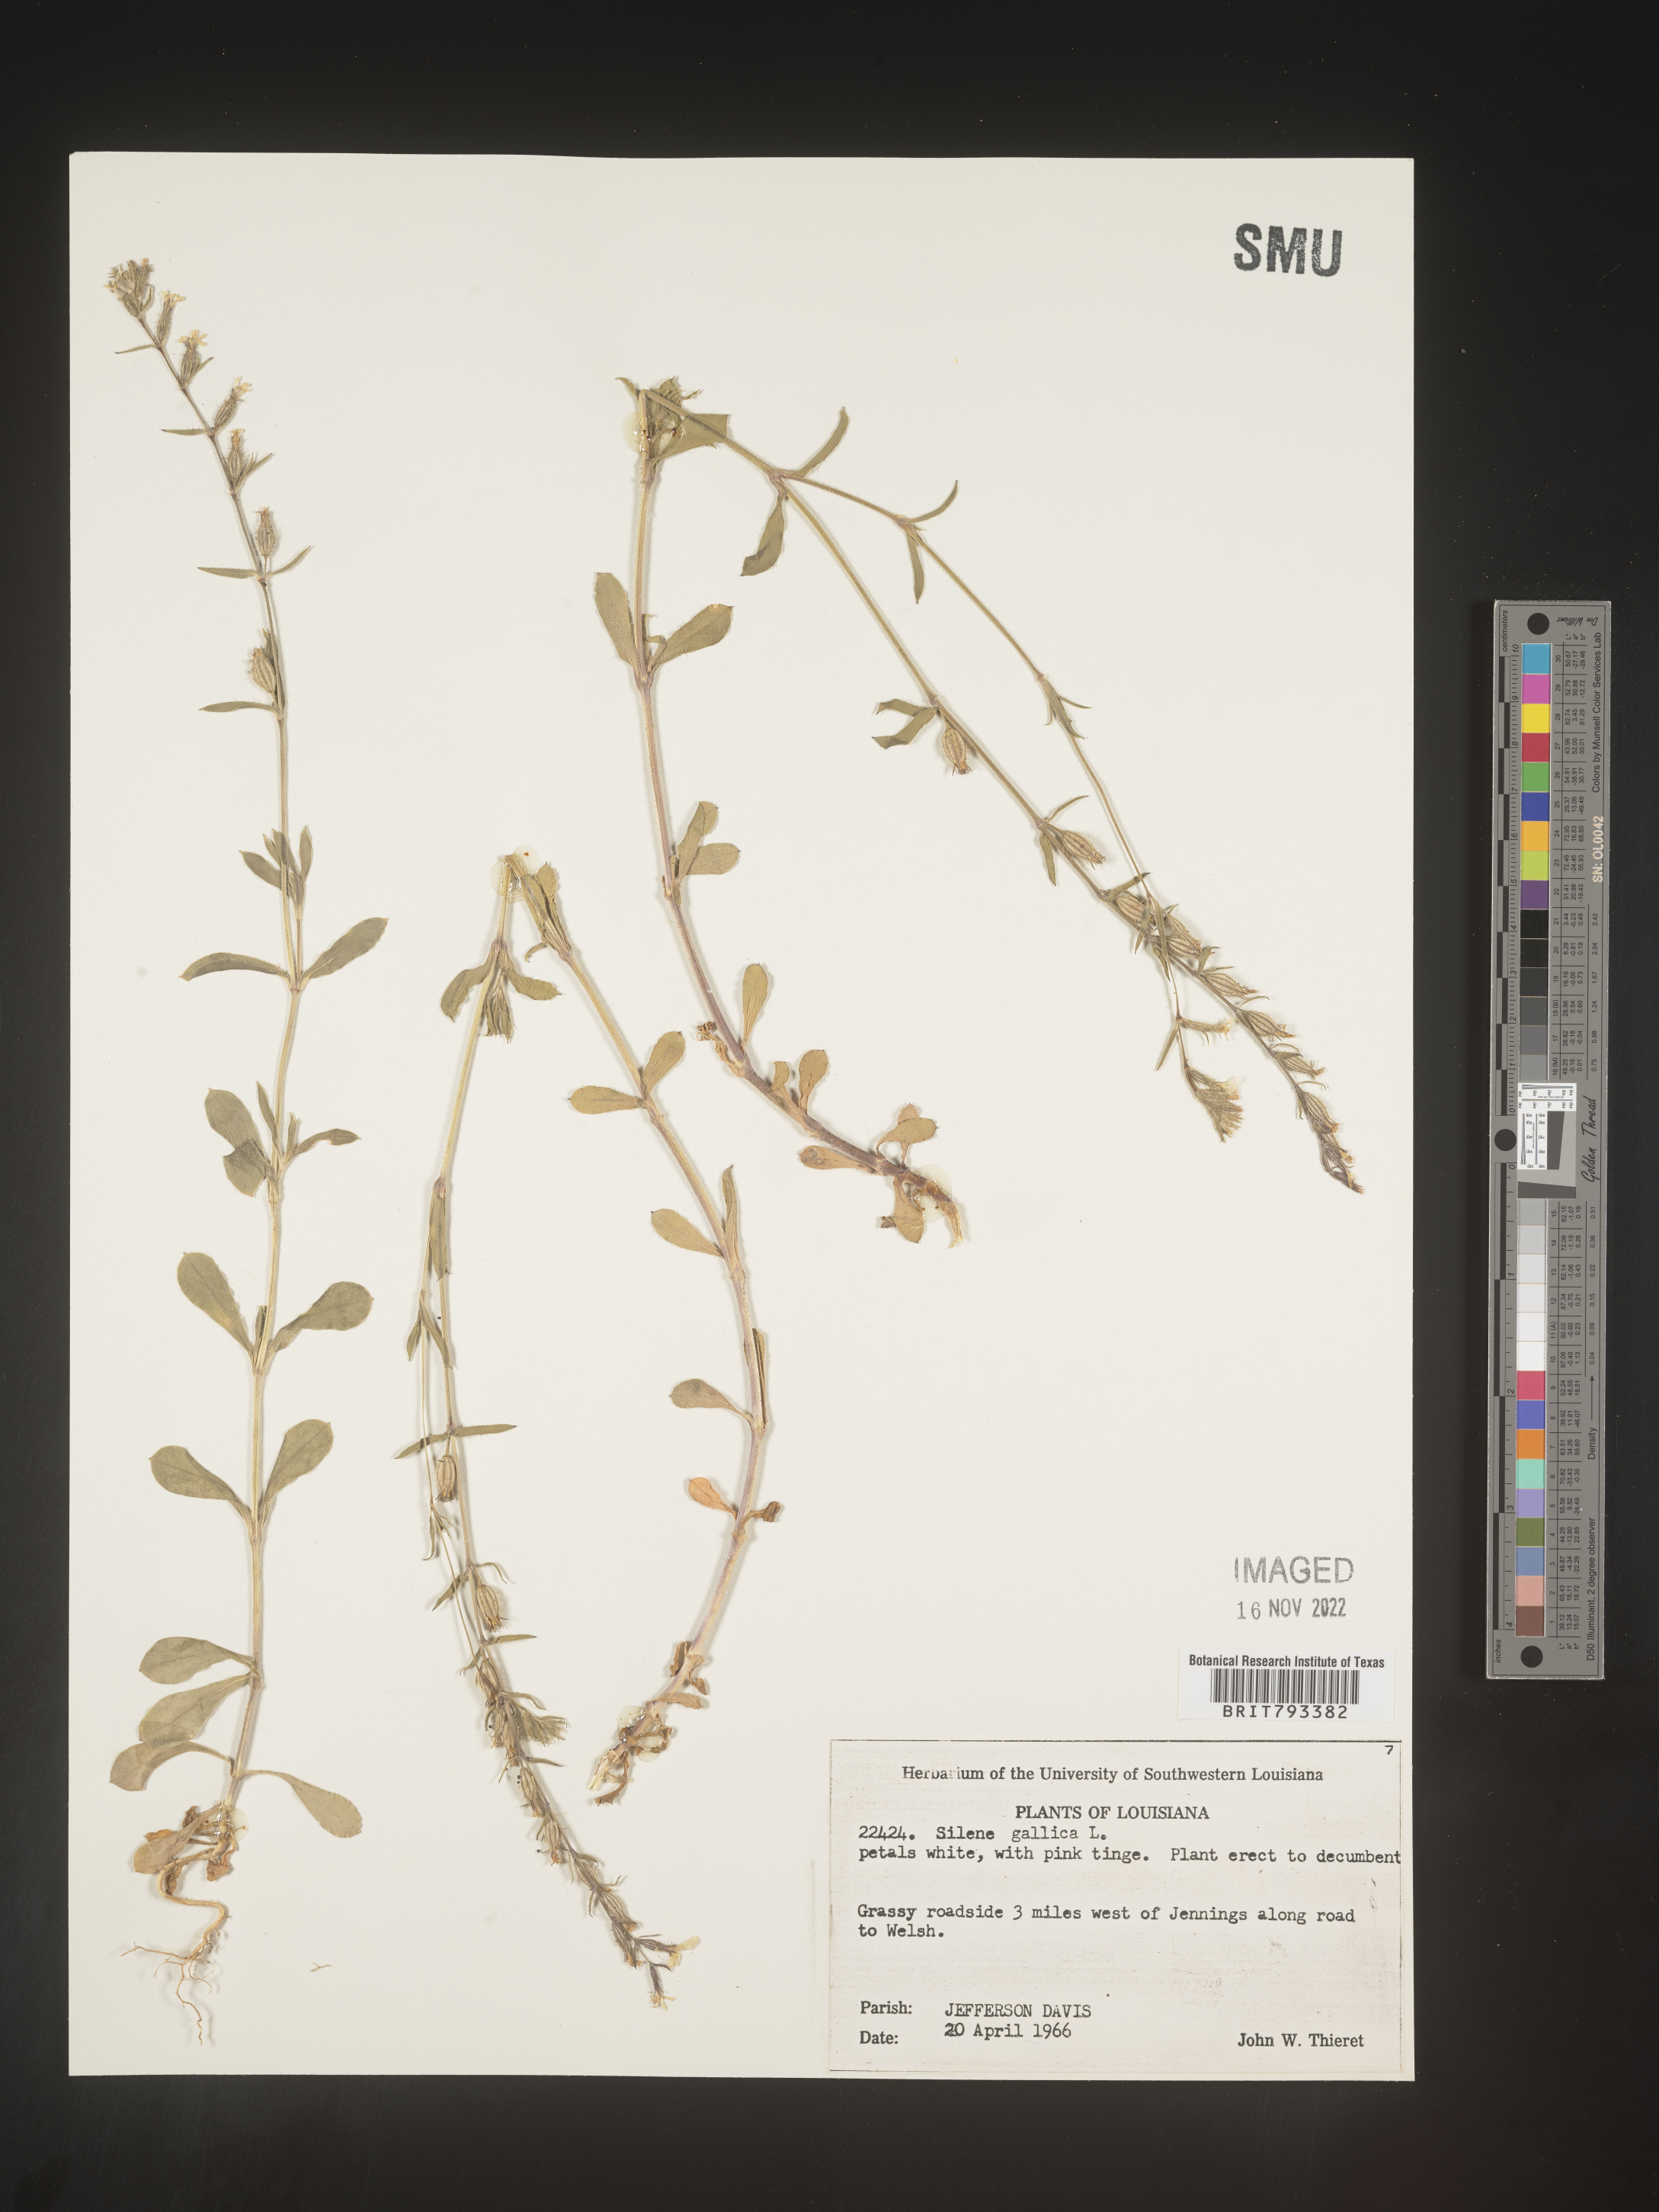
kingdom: Plantae
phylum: Tracheophyta
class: Magnoliopsida
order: Caryophyllales
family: Caryophyllaceae
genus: Silene
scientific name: Silene gallica
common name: Small-flowered catchfly
